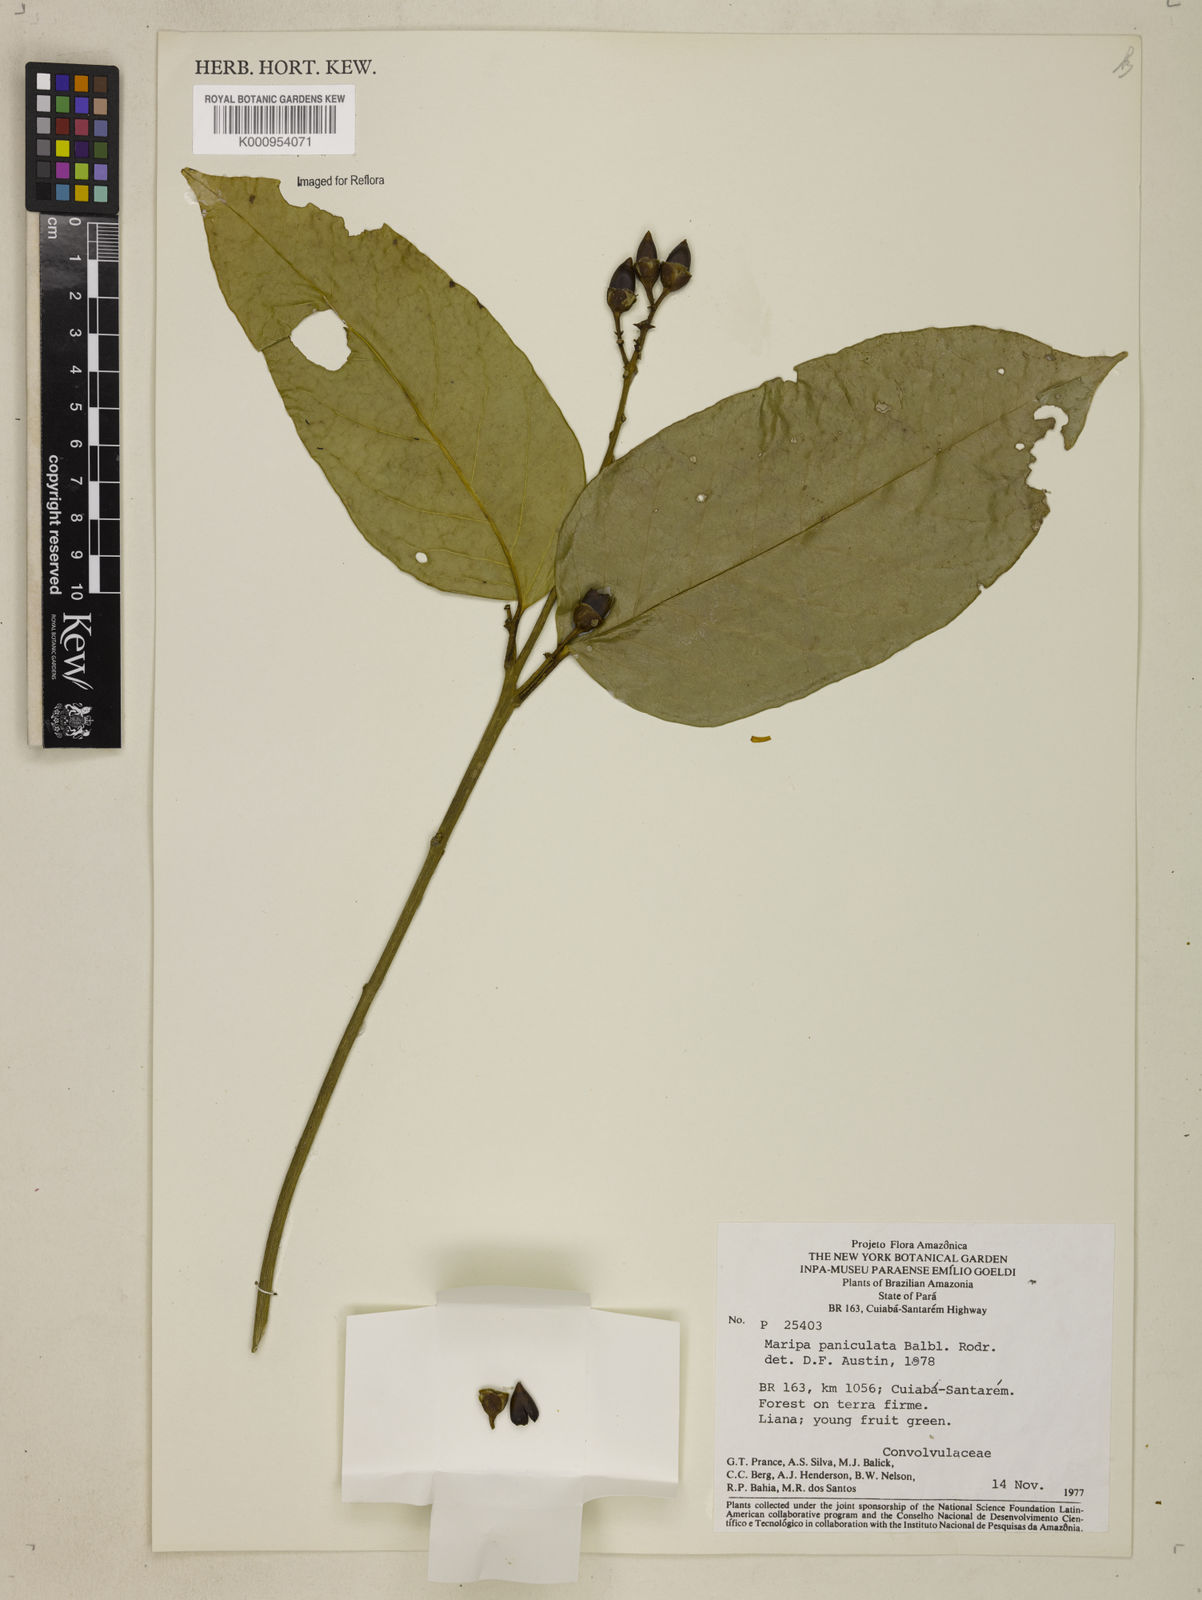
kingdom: Plantae
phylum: Tracheophyta
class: Magnoliopsida
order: Solanales
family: Convolvulaceae
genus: Maripa
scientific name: Maripa paniculata
